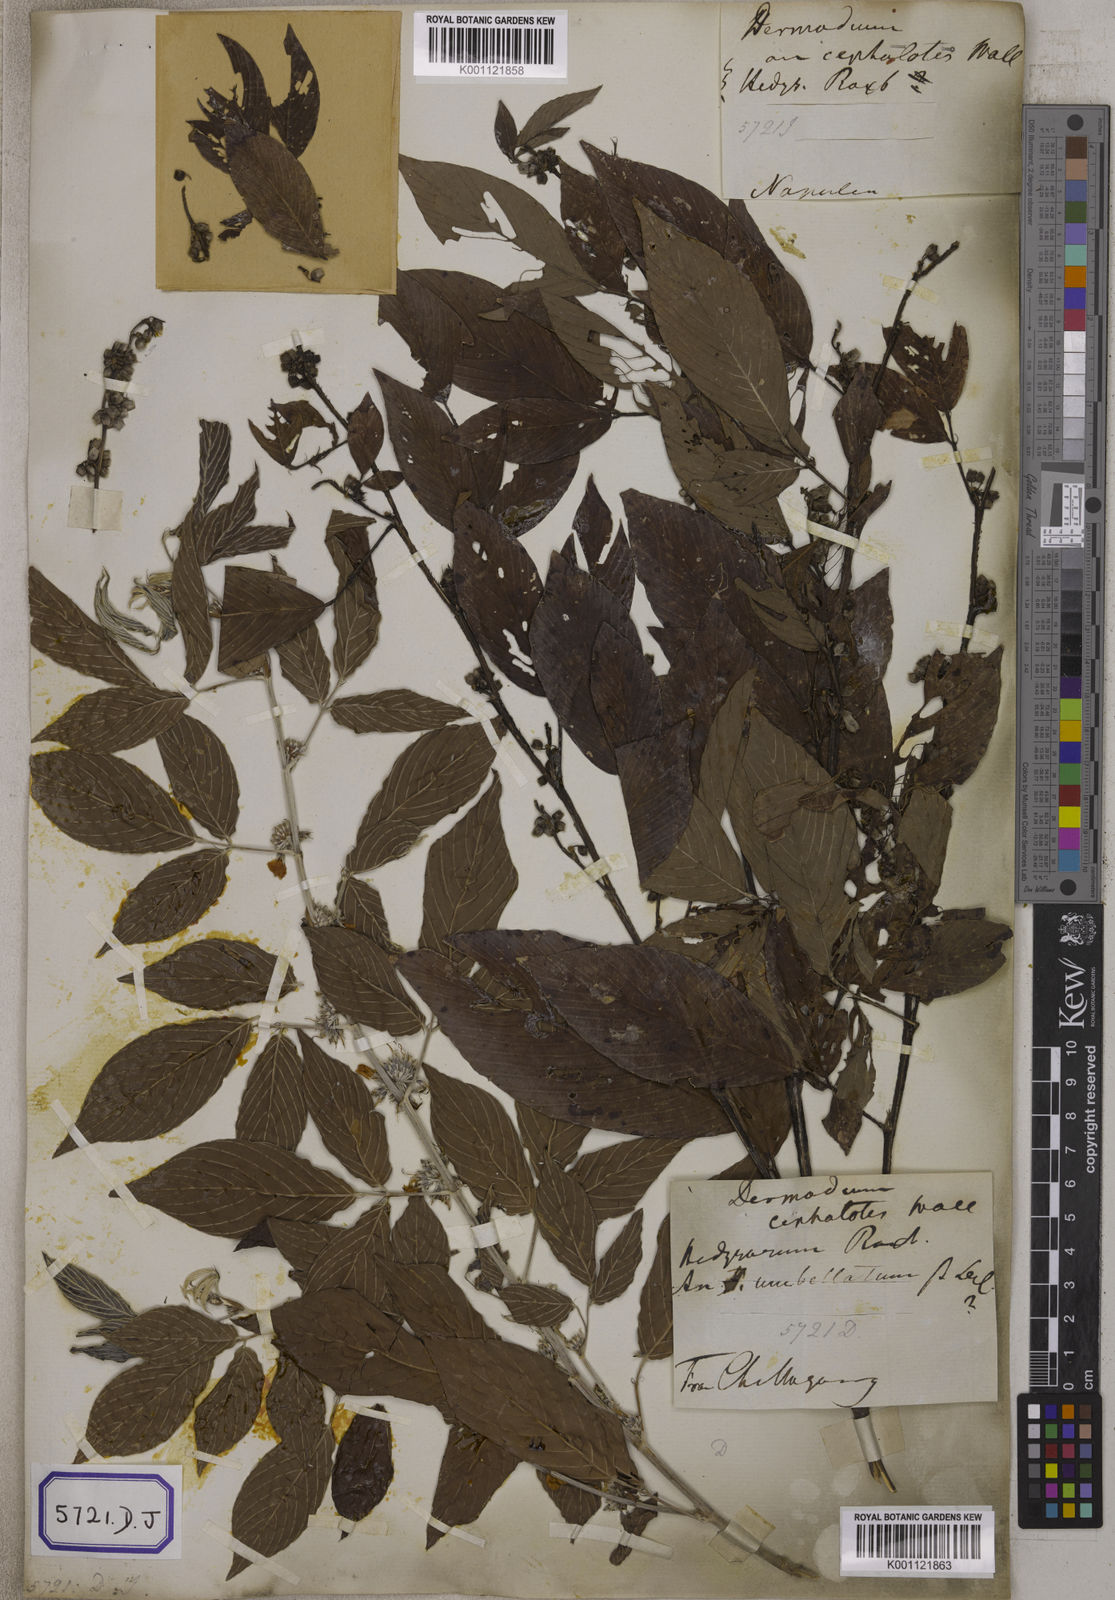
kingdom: Plantae
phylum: Tracheophyta
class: Magnoliopsida
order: Fabales
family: Fabaceae
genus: Desmodium
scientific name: Desmodium
